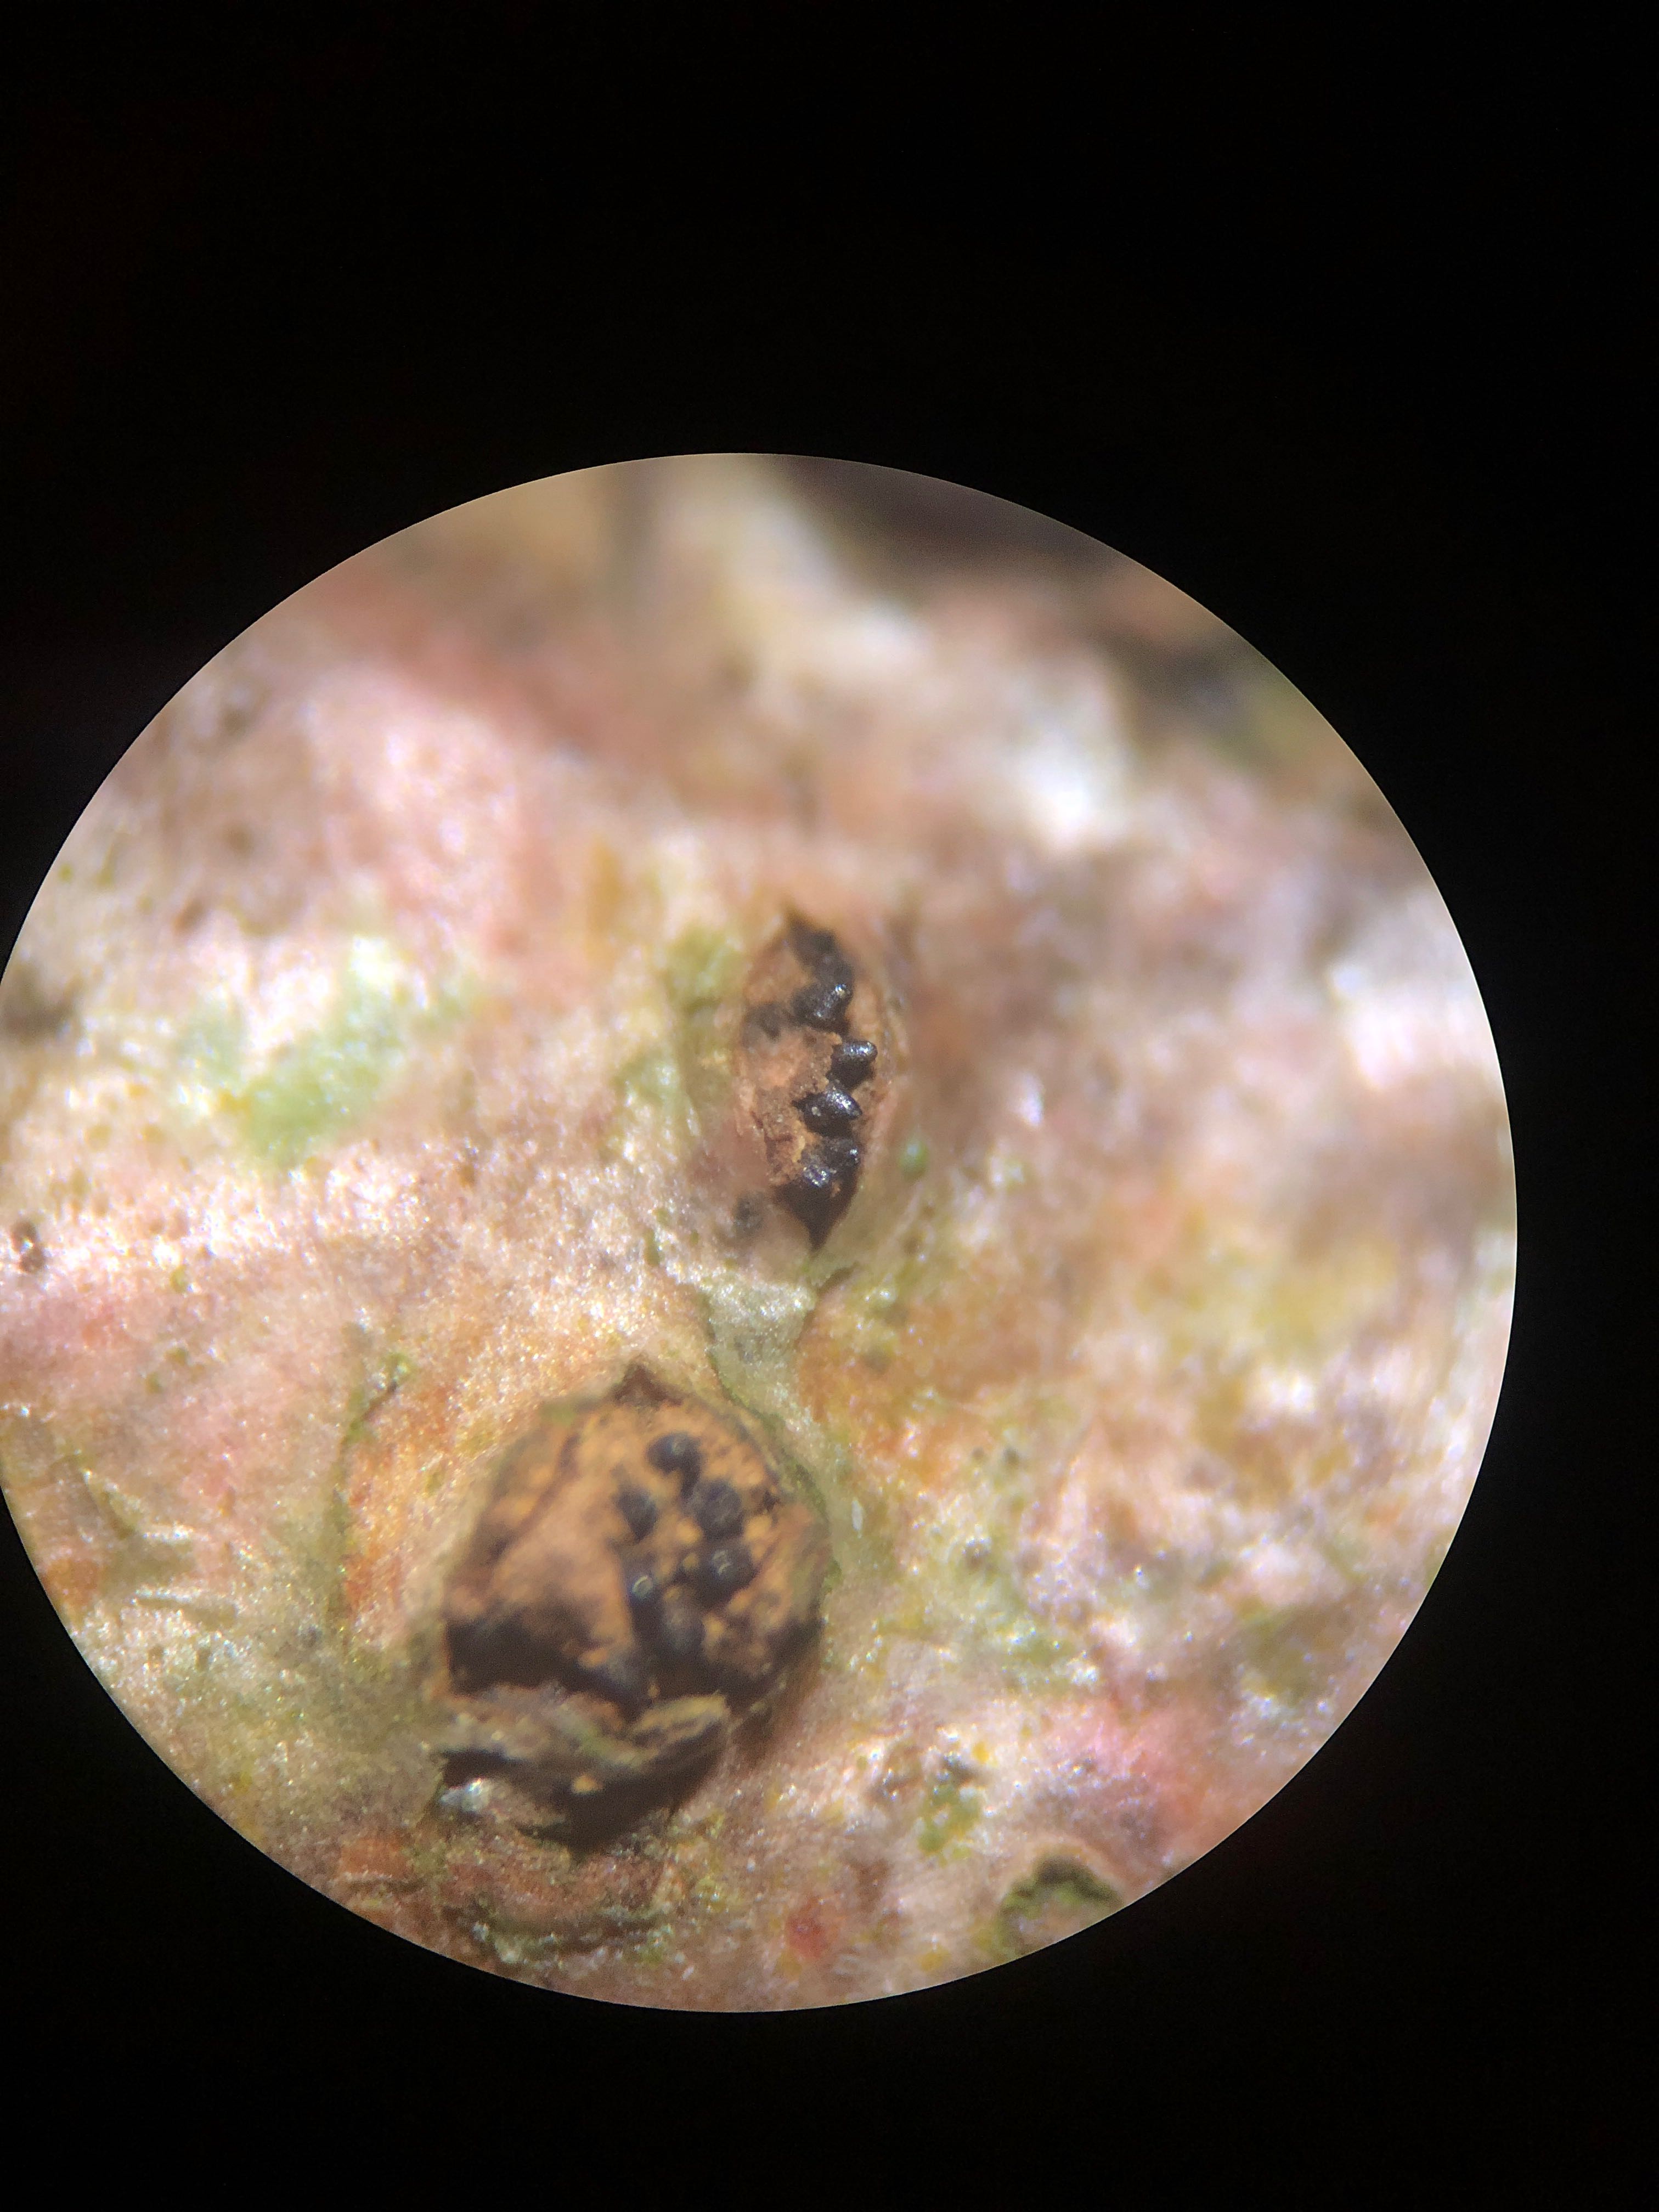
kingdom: Fungi
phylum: Ascomycota
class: Sordariomycetes
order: Diaporthales
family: Erythrogloeaceae
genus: Dendrostoma
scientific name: Dendrostoma leiphaemia
